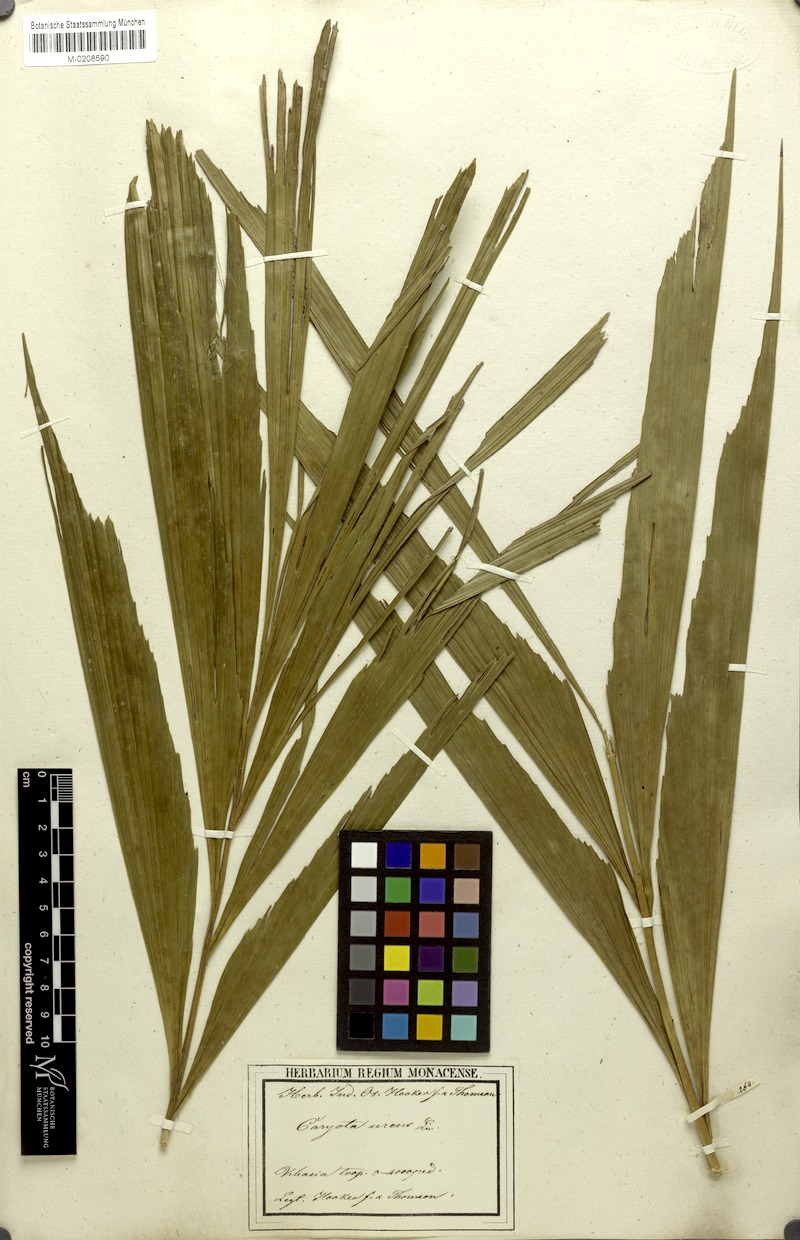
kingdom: Plantae
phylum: Tracheophyta
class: Liliopsida
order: Arecales
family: Arecaceae
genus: Caryota
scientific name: Caryota urens
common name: Jaggery palm
